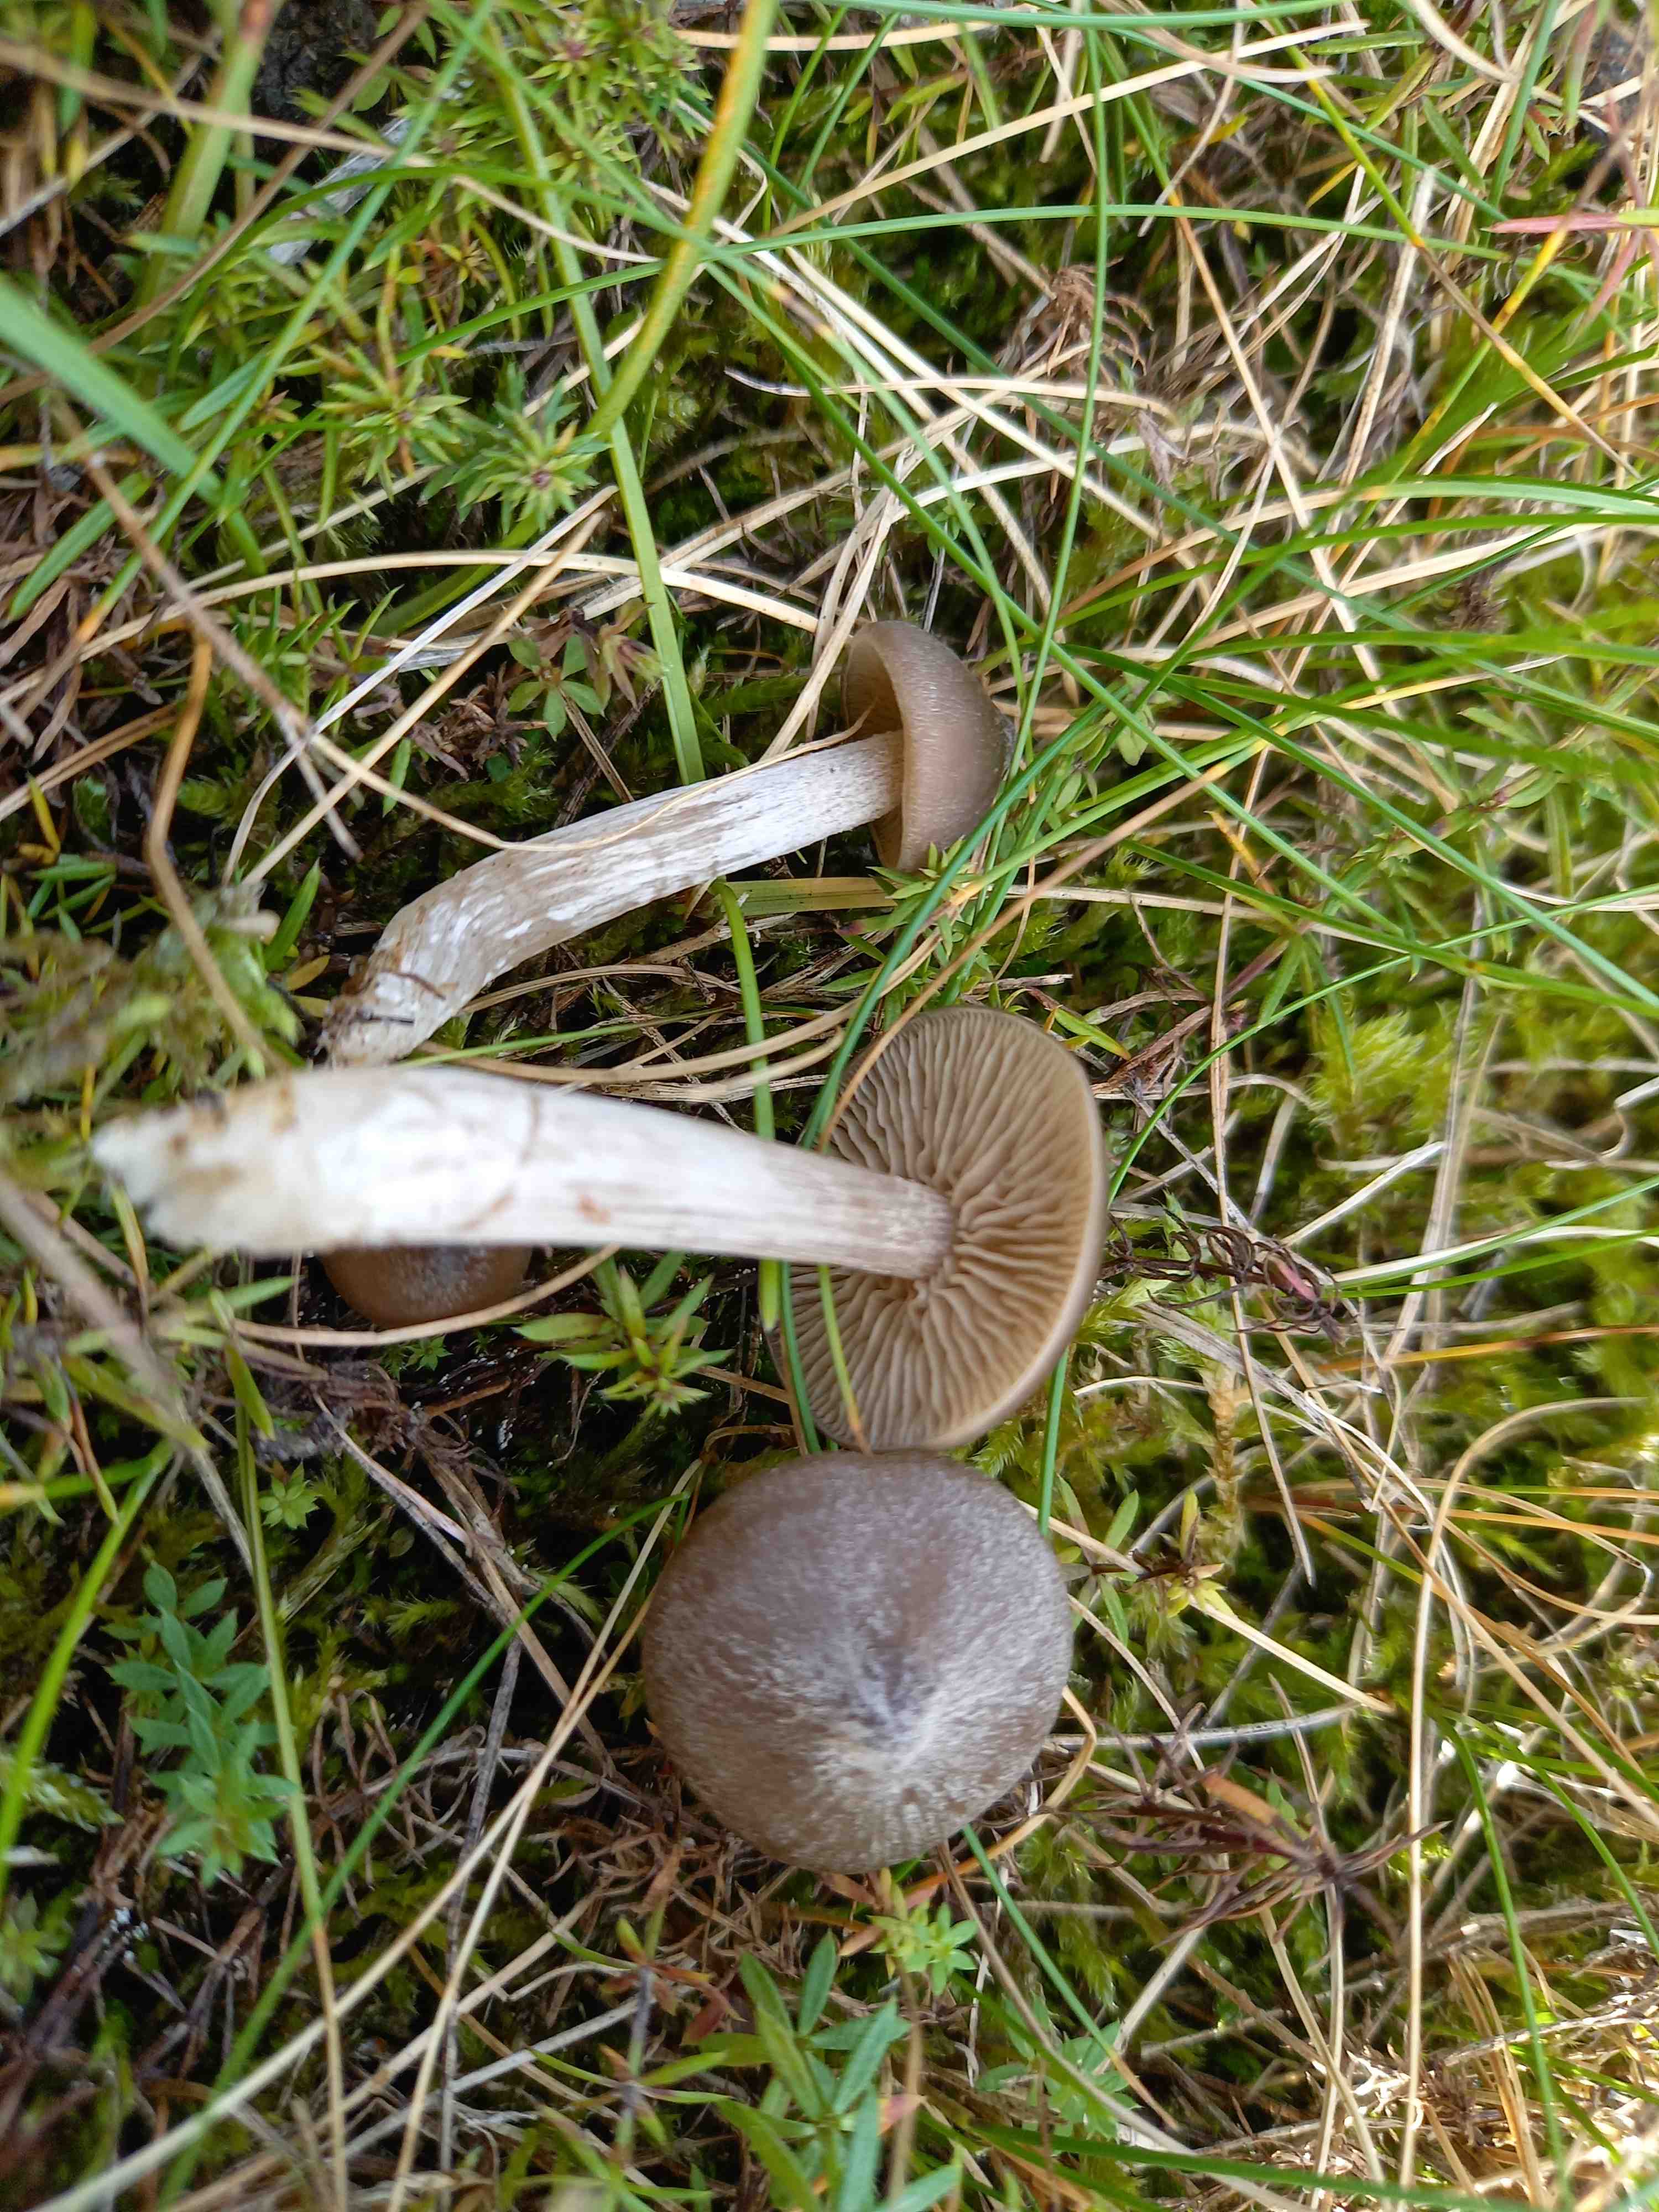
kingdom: Fungi
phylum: Basidiomycota
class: Agaricomycetes
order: Agaricales
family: Entolomataceae
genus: Entoloma
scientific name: Entoloma sericeum
